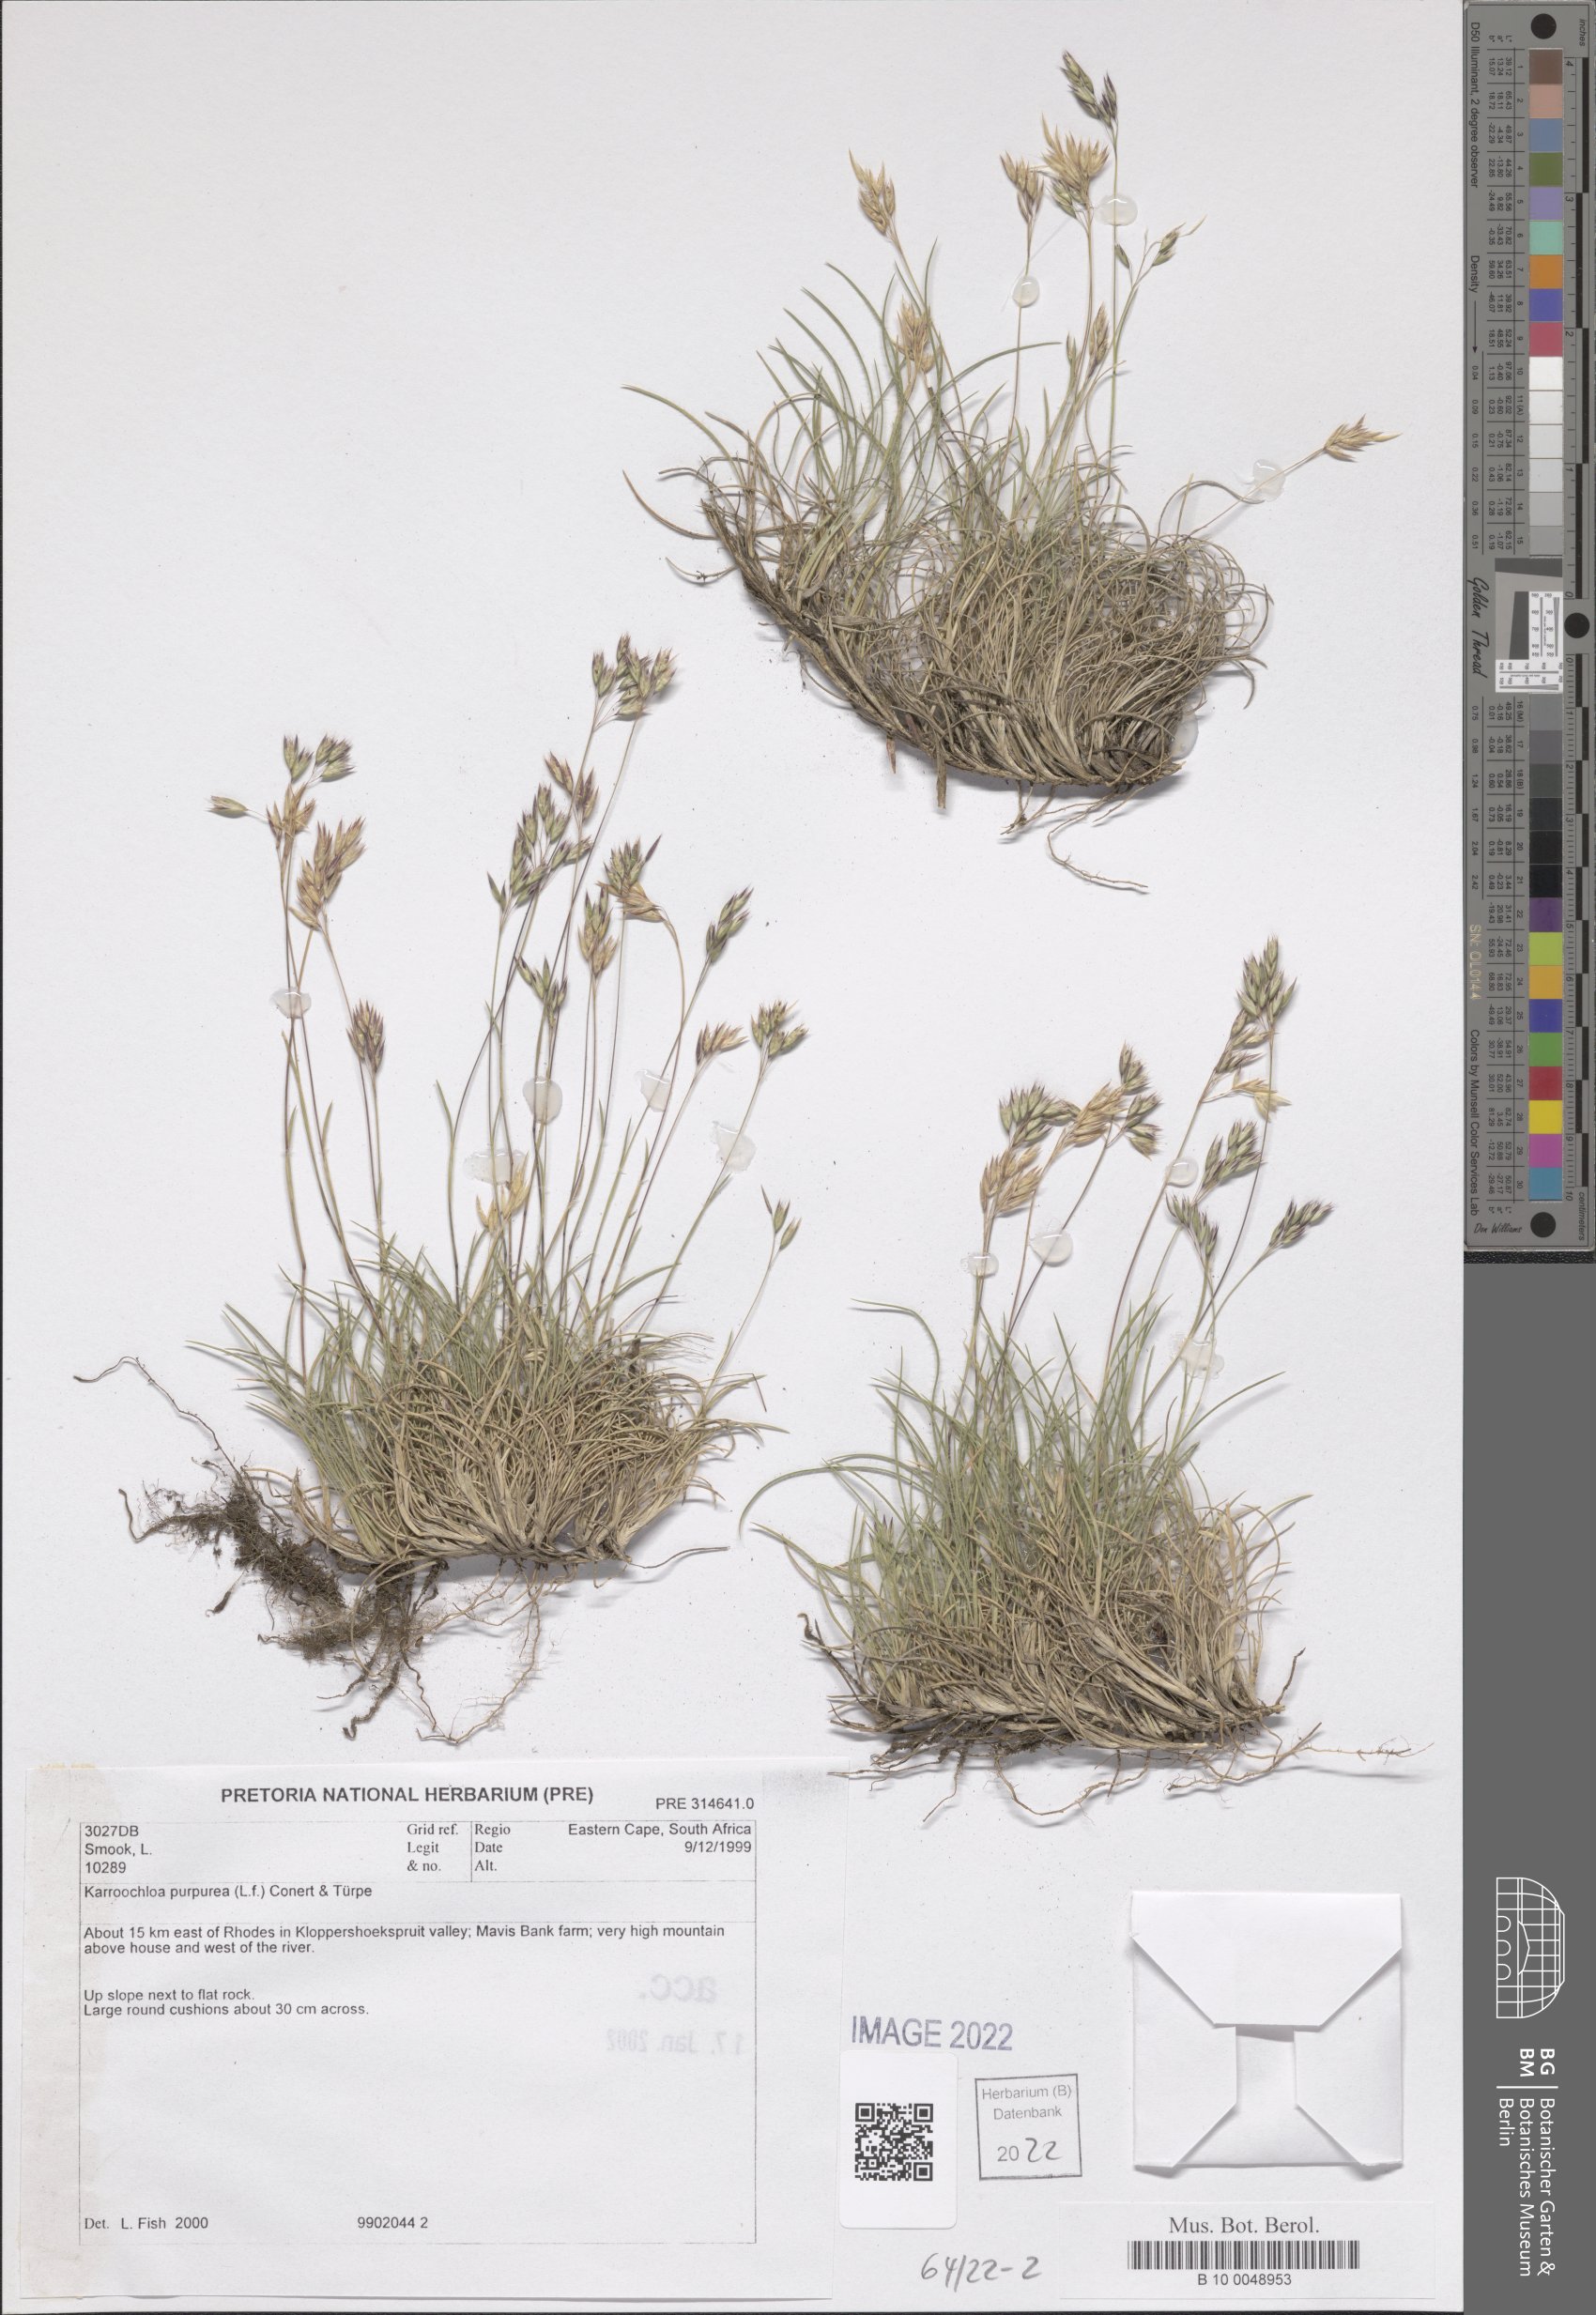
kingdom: Plantae
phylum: Tracheophyta
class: Liliopsida
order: Poales
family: Poaceae
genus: Tribolium
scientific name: Tribolium purpureum
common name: Grass
